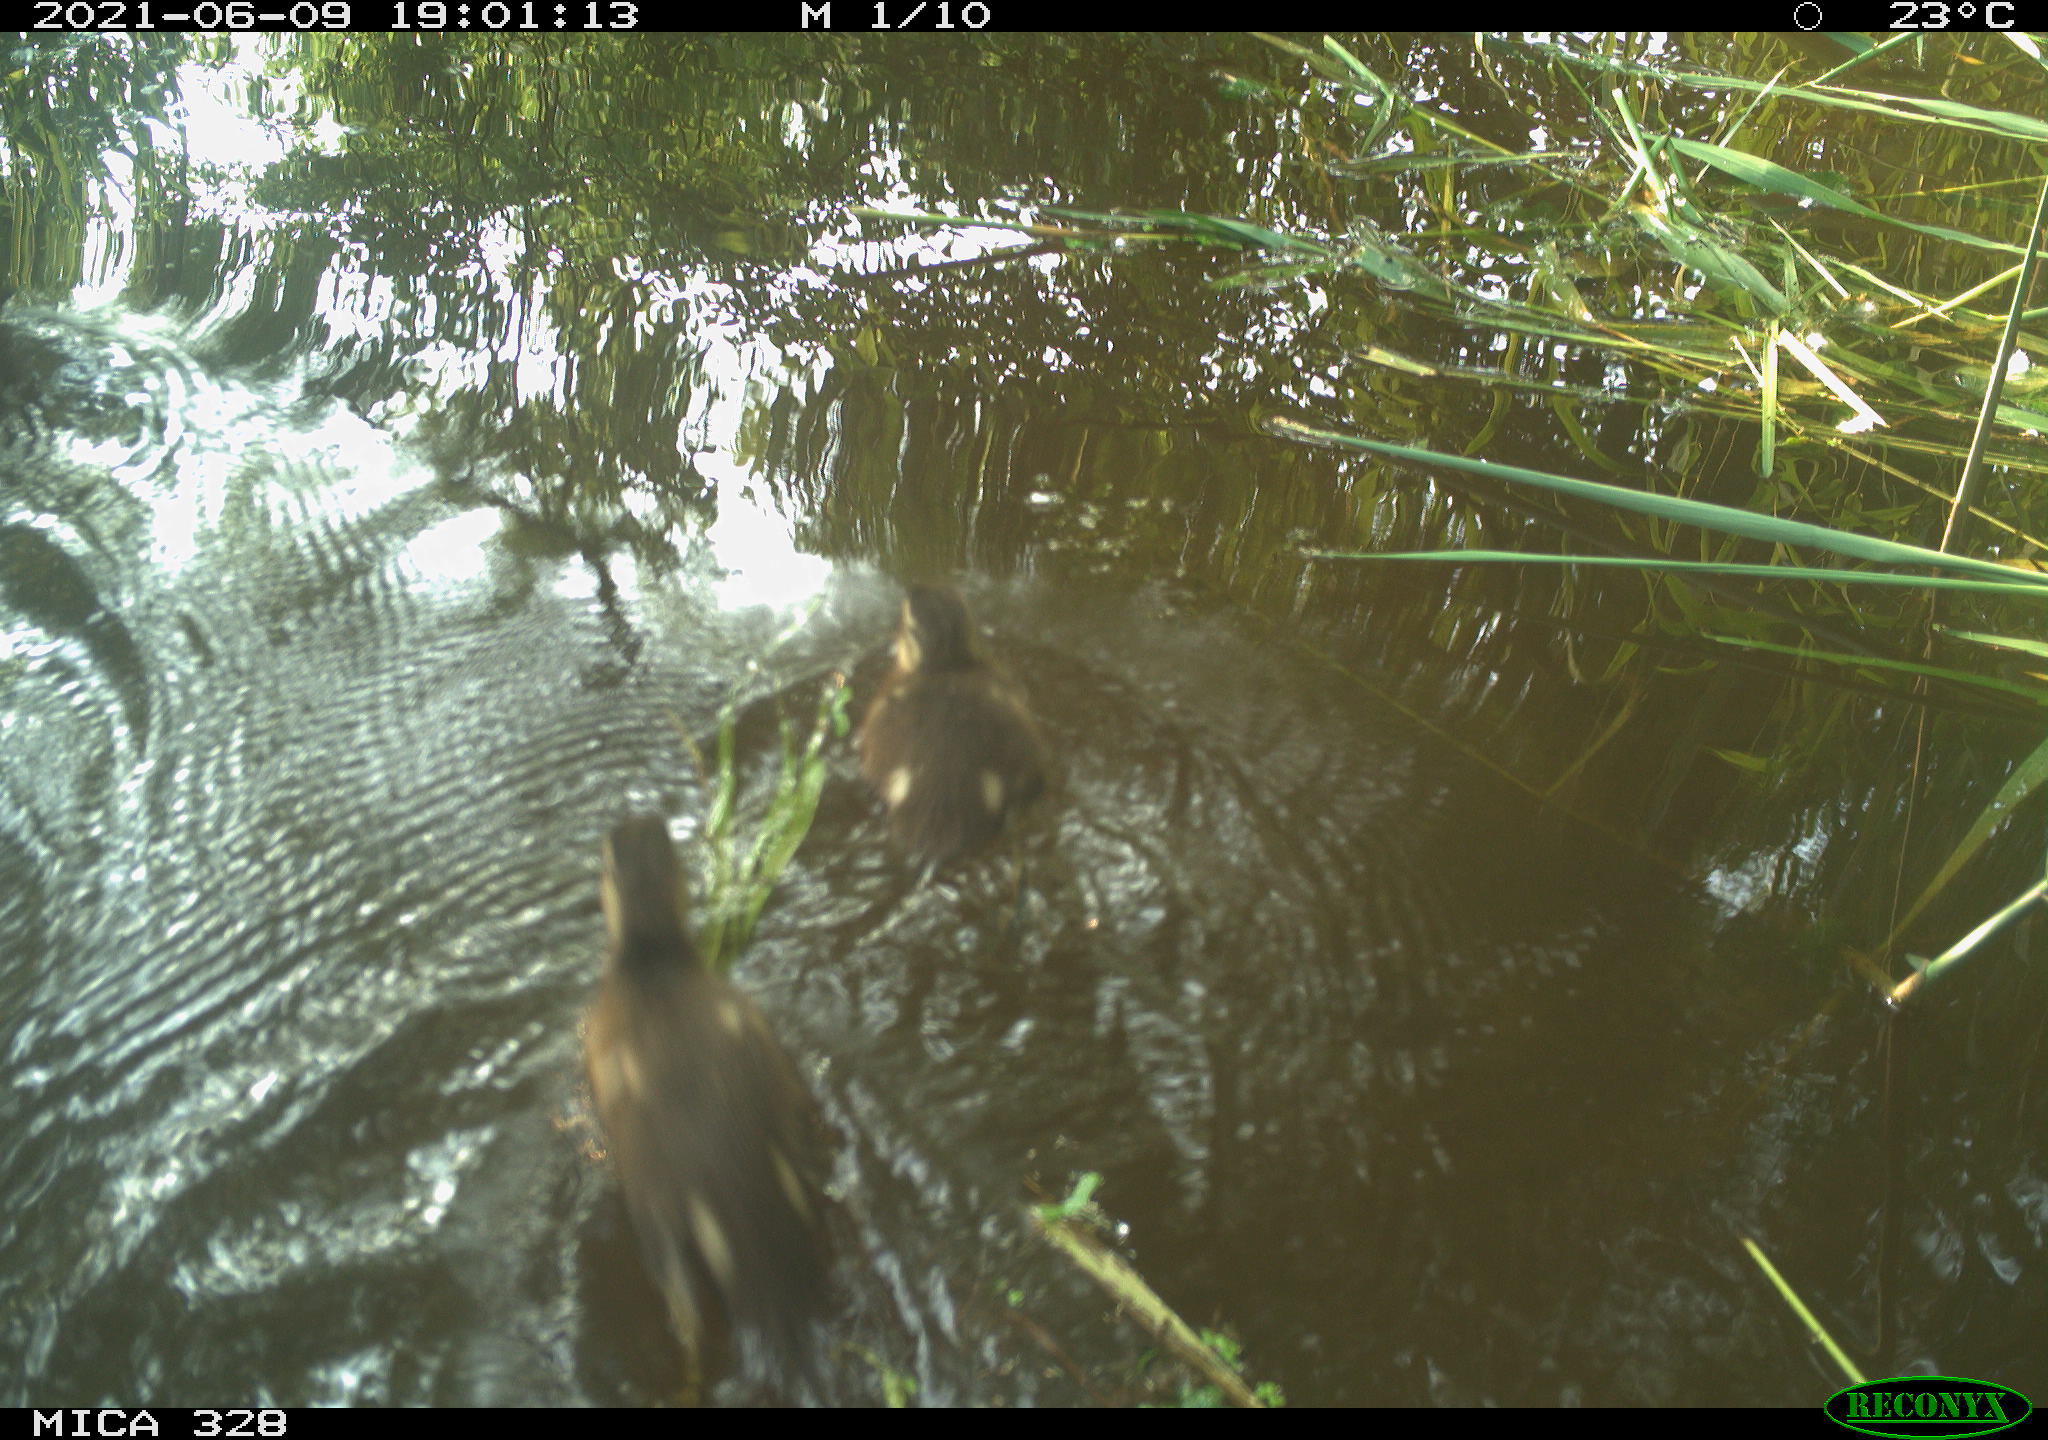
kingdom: Animalia
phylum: Chordata
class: Aves
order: Anseriformes
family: Anatidae
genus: Aix
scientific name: Aix galericulata
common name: Mandarin duck
